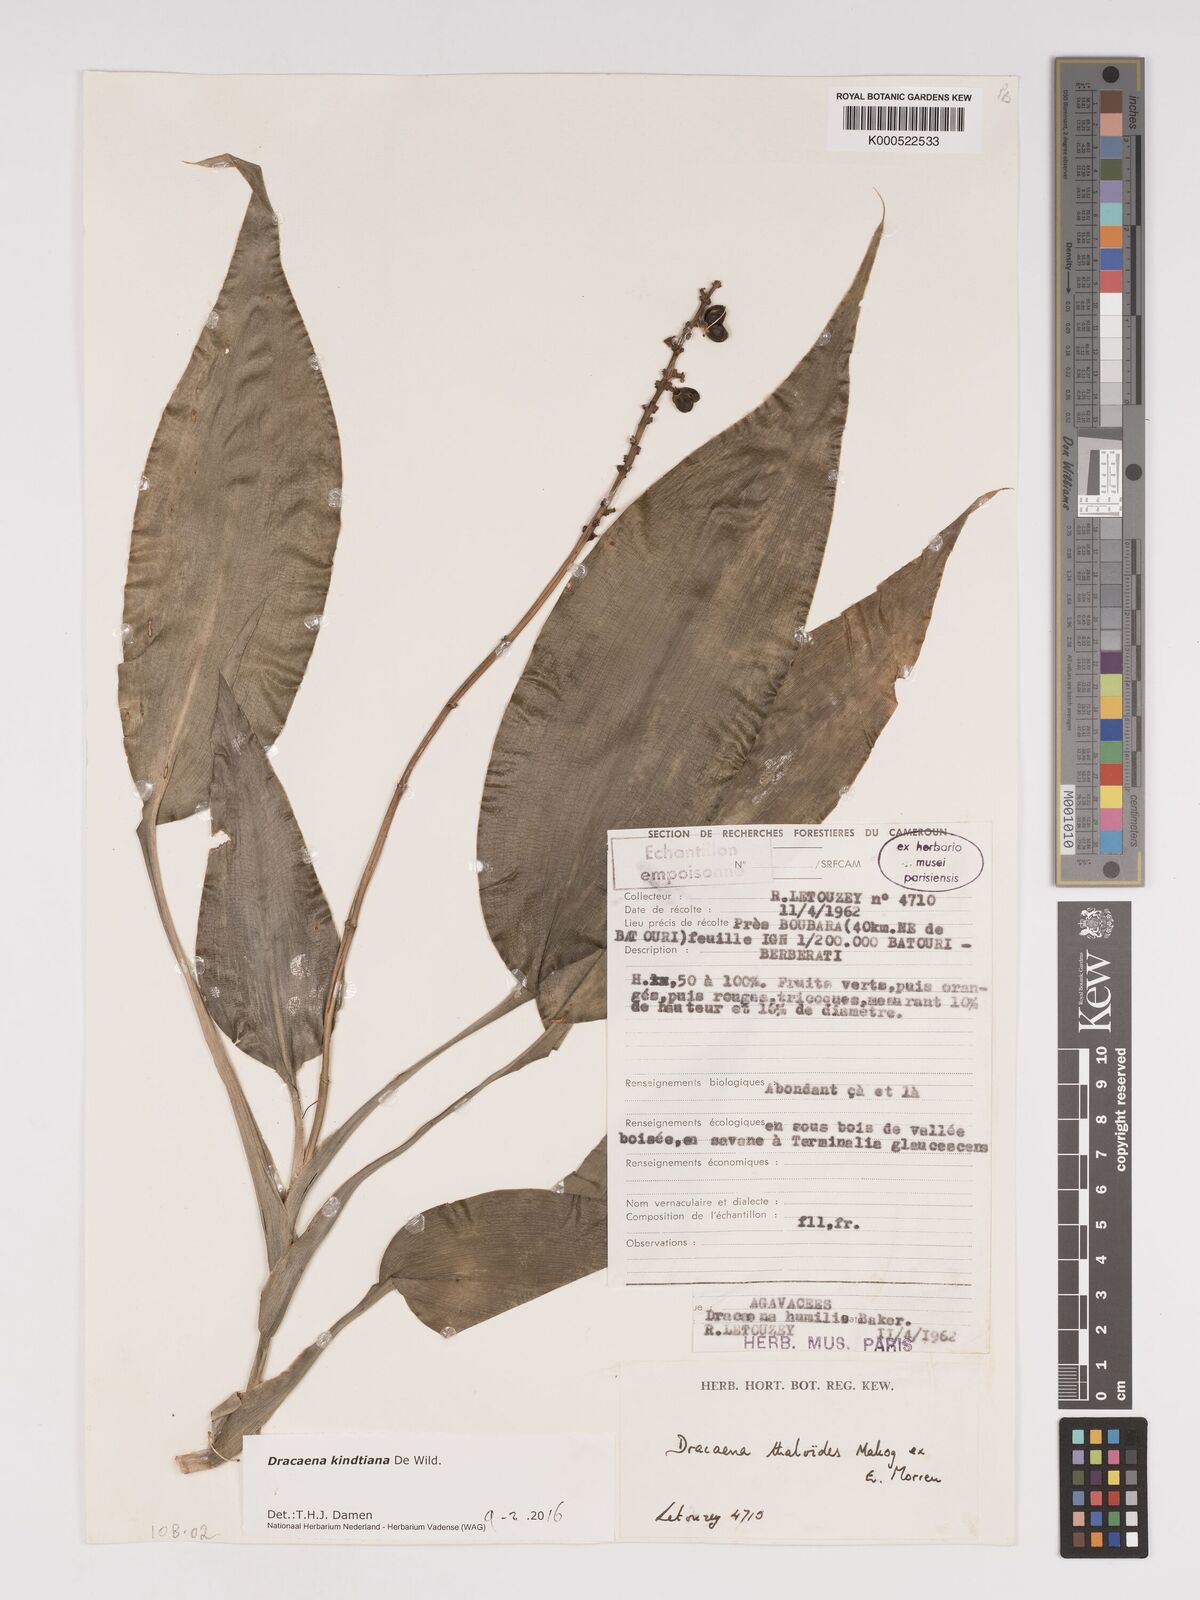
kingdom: Plantae
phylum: Tracheophyta
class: Liliopsida
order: Asparagales
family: Asparagaceae
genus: Dracaena
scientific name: Dracaena kindtiana
